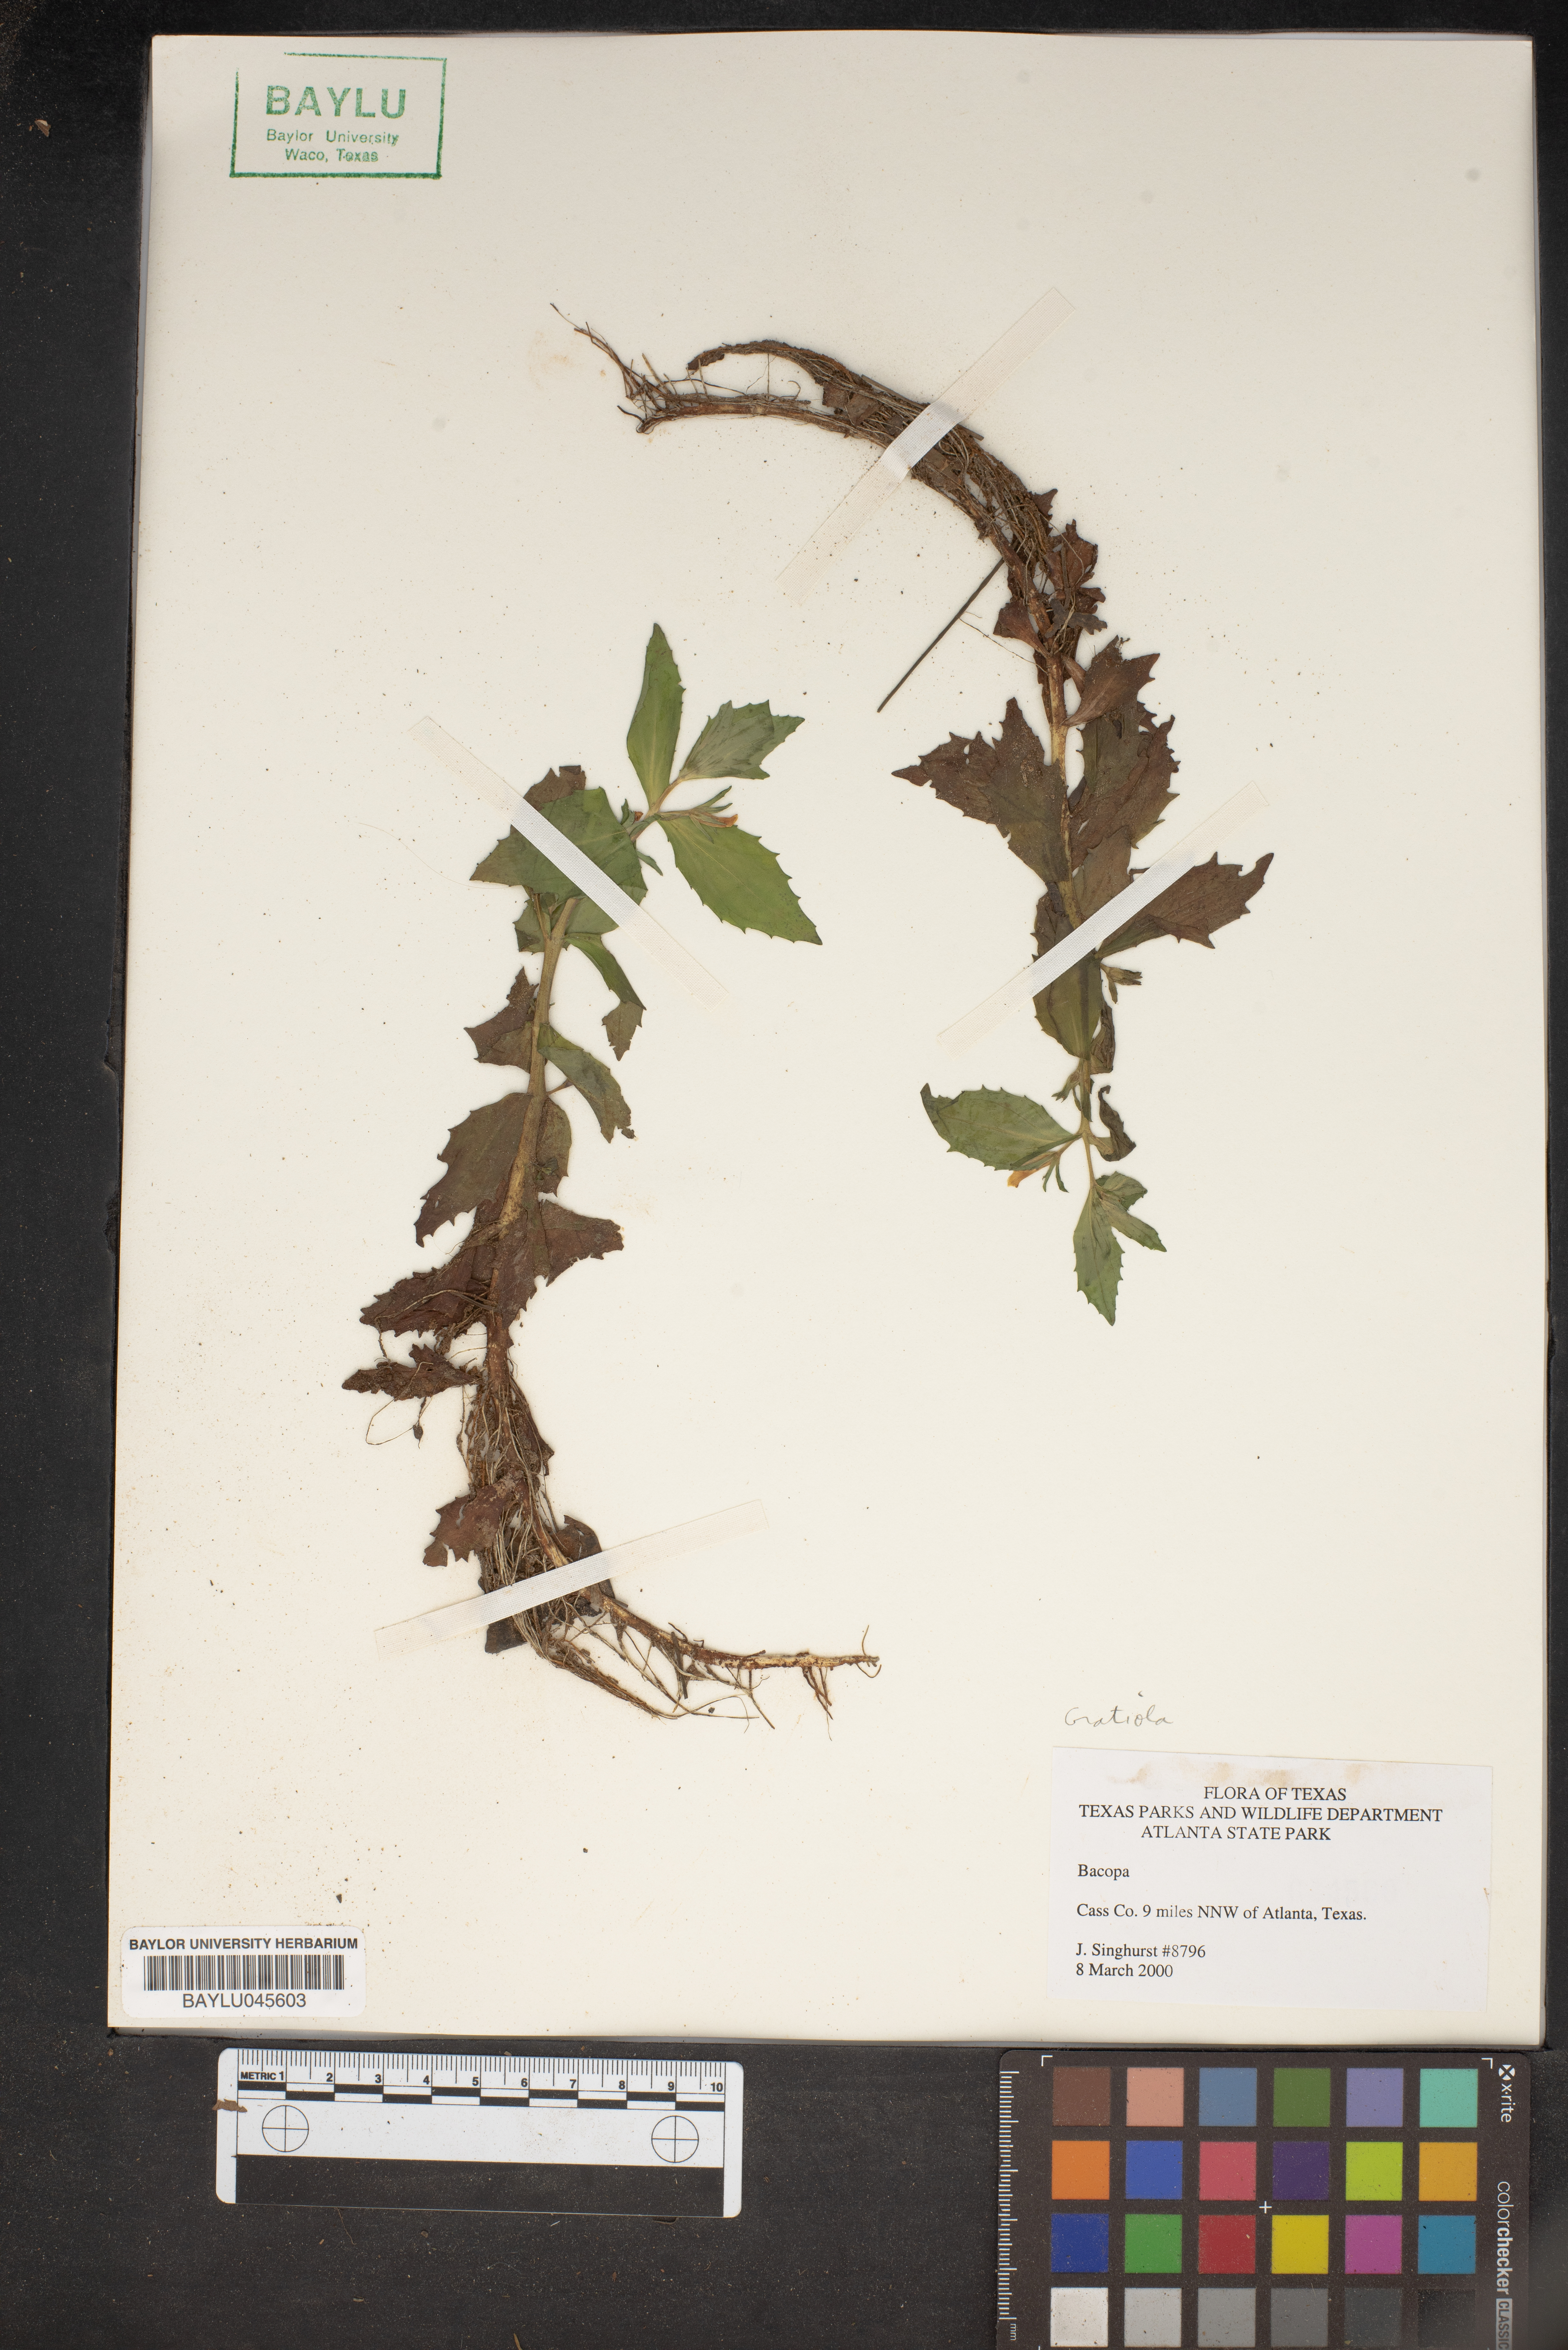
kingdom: Plantae
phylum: Tracheophyta
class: Magnoliopsida
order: Lamiales
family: Plantaginaceae
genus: Bacopa
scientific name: Bacopa
